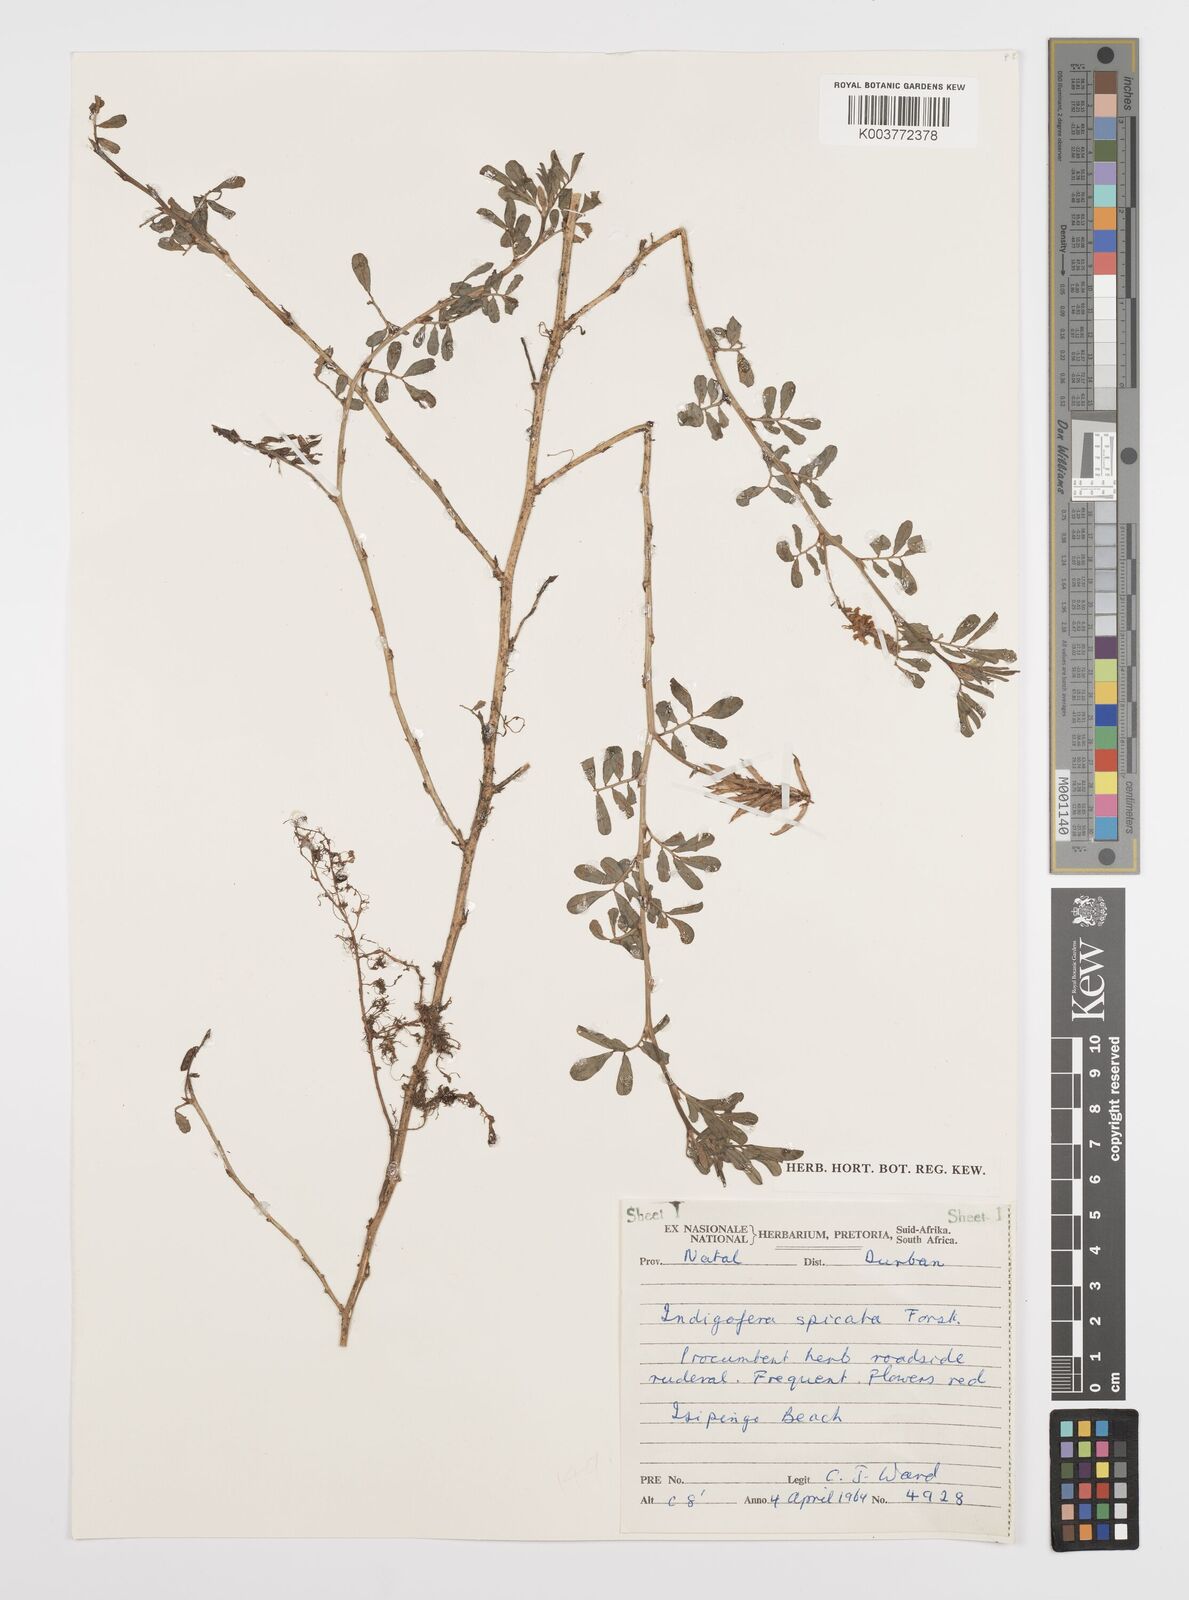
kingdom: Plantae
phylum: Tracheophyta
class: Magnoliopsida
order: Fabales
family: Fabaceae
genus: Indigofera
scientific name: Indigofera hendecaphylla
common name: Trailing indigo
